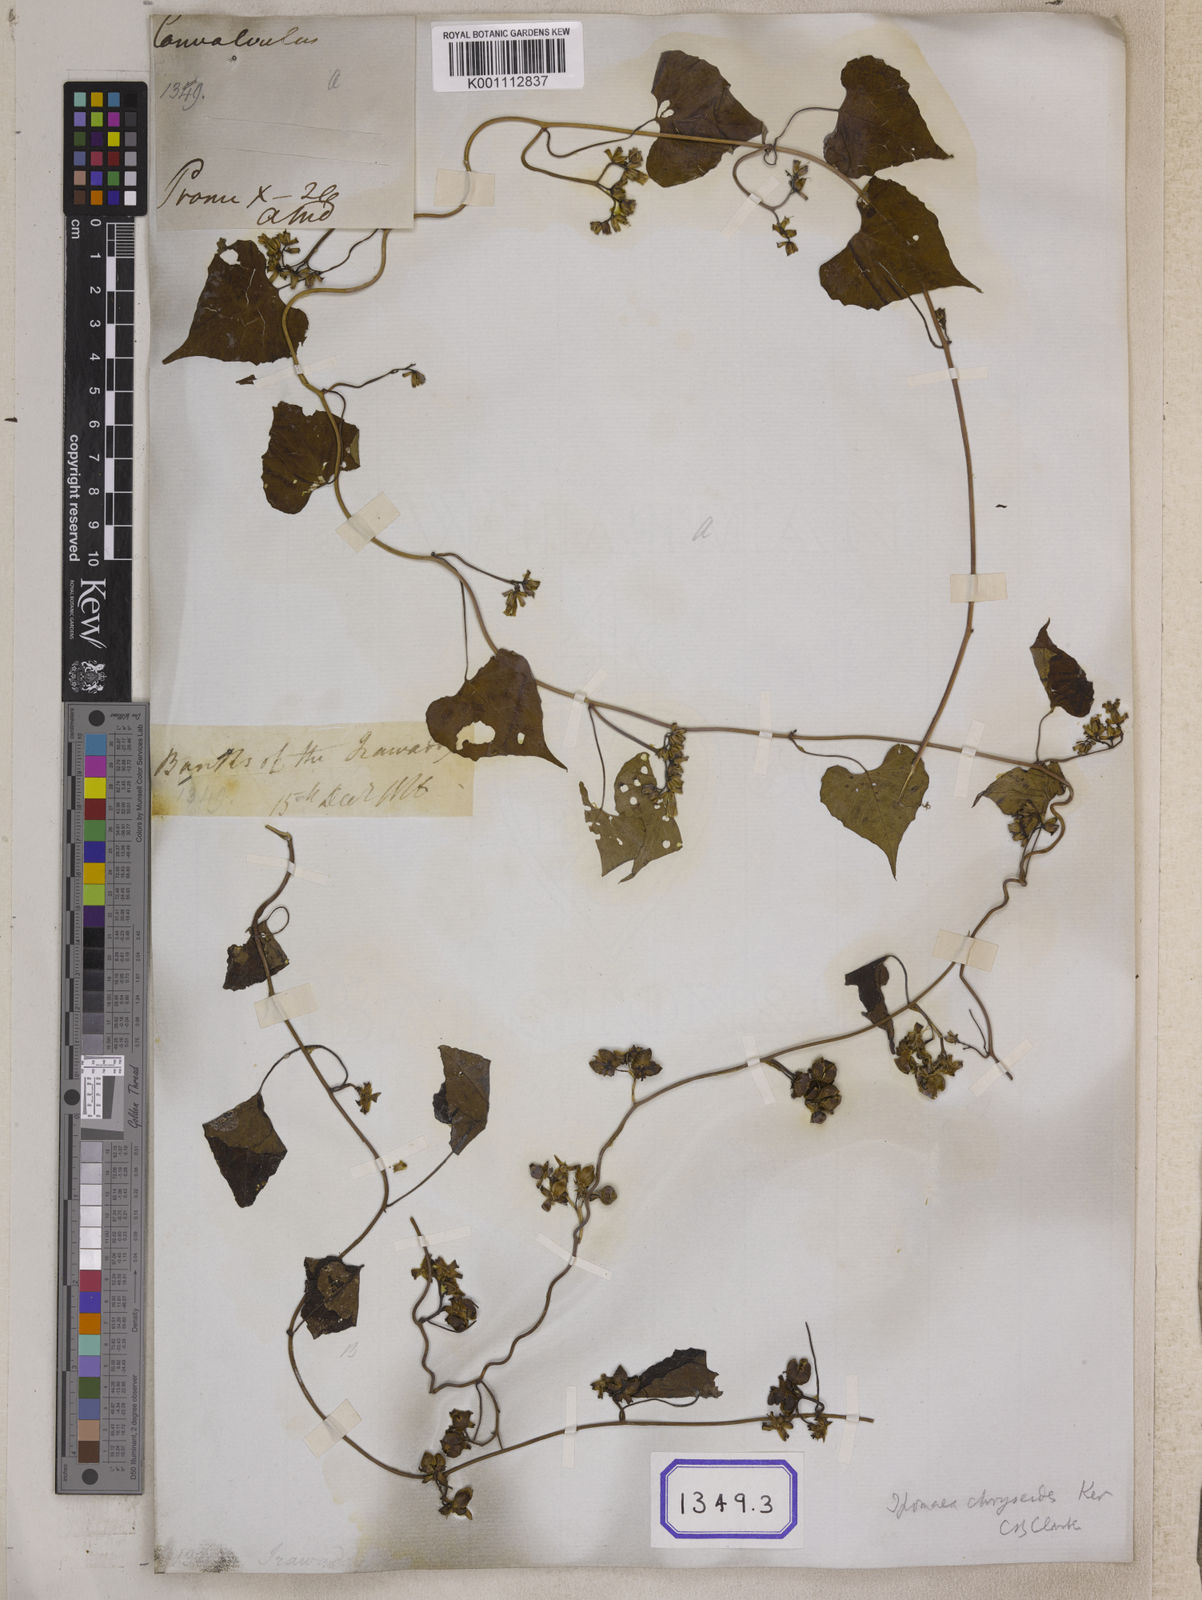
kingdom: Plantae
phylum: Tracheophyta
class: Magnoliopsida
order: Solanales
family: Convolvulaceae
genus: Merremia
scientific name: Merremia hederacea
